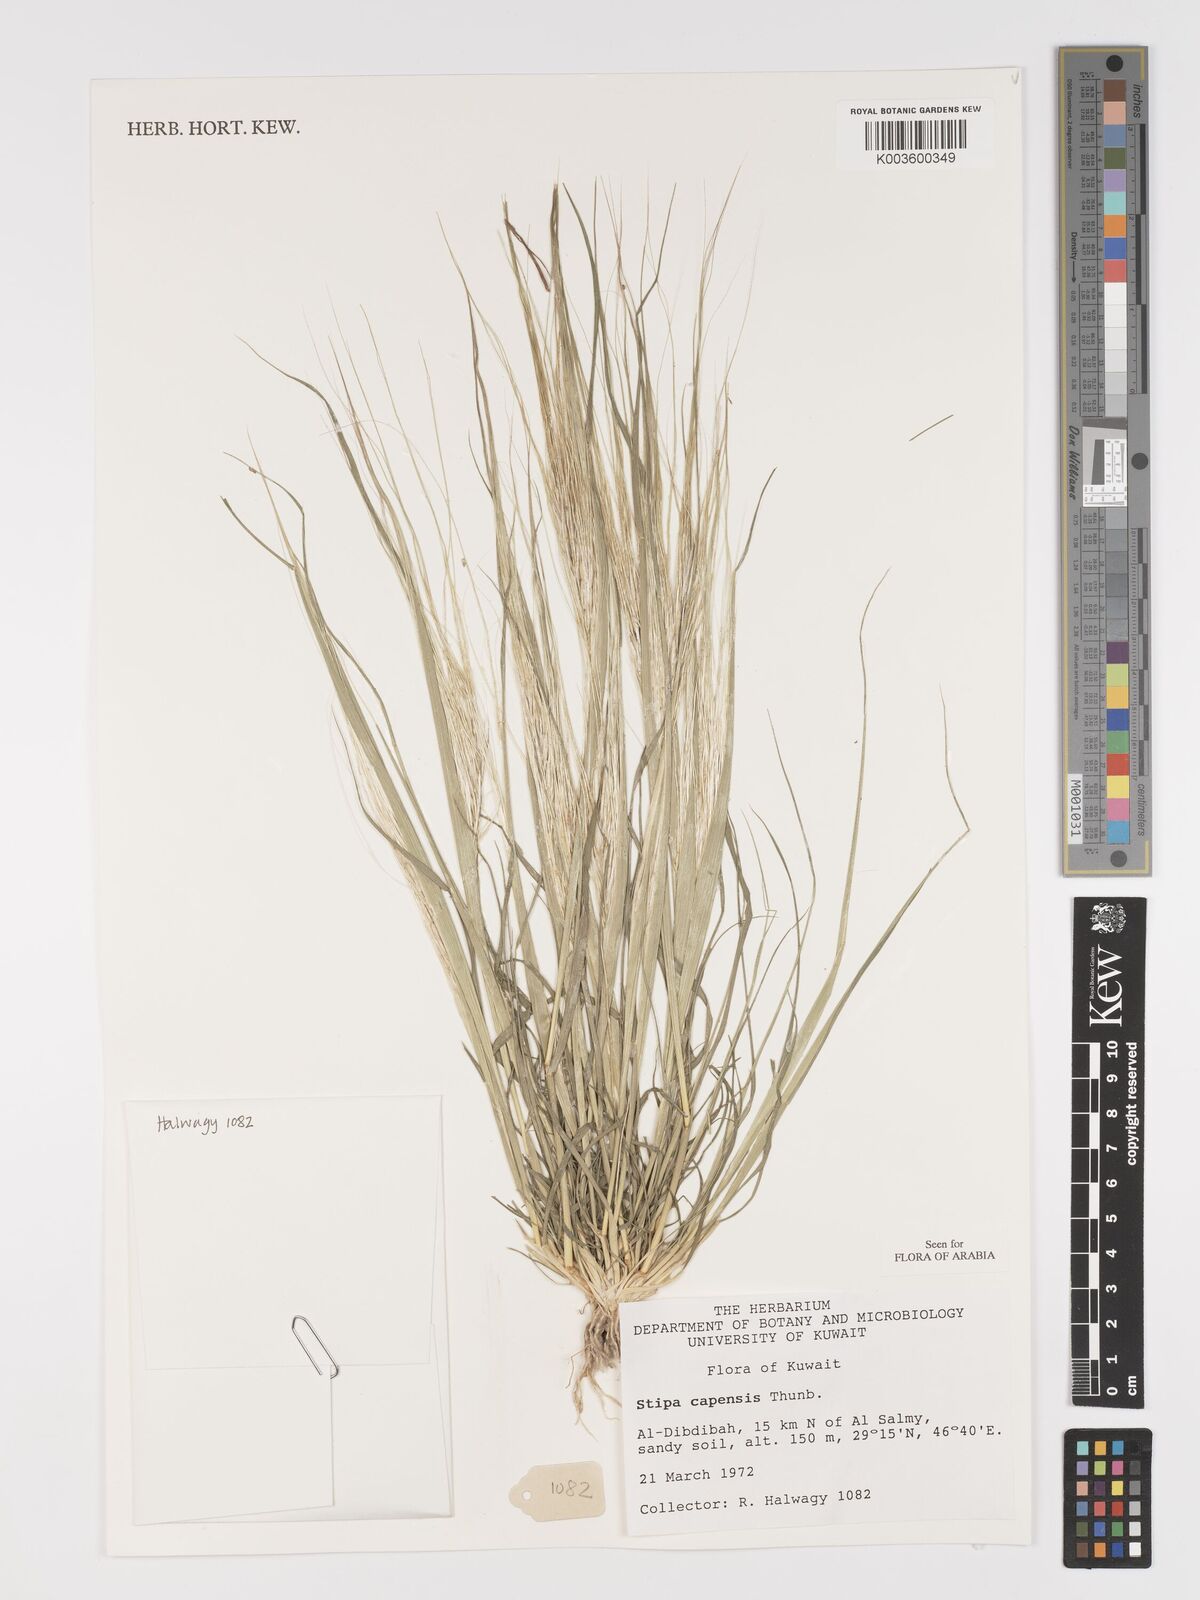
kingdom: Plantae
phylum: Tracheophyta
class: Liliopsida
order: Poales
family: Poaceae
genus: Stipellula
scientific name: Stipellula capensis
